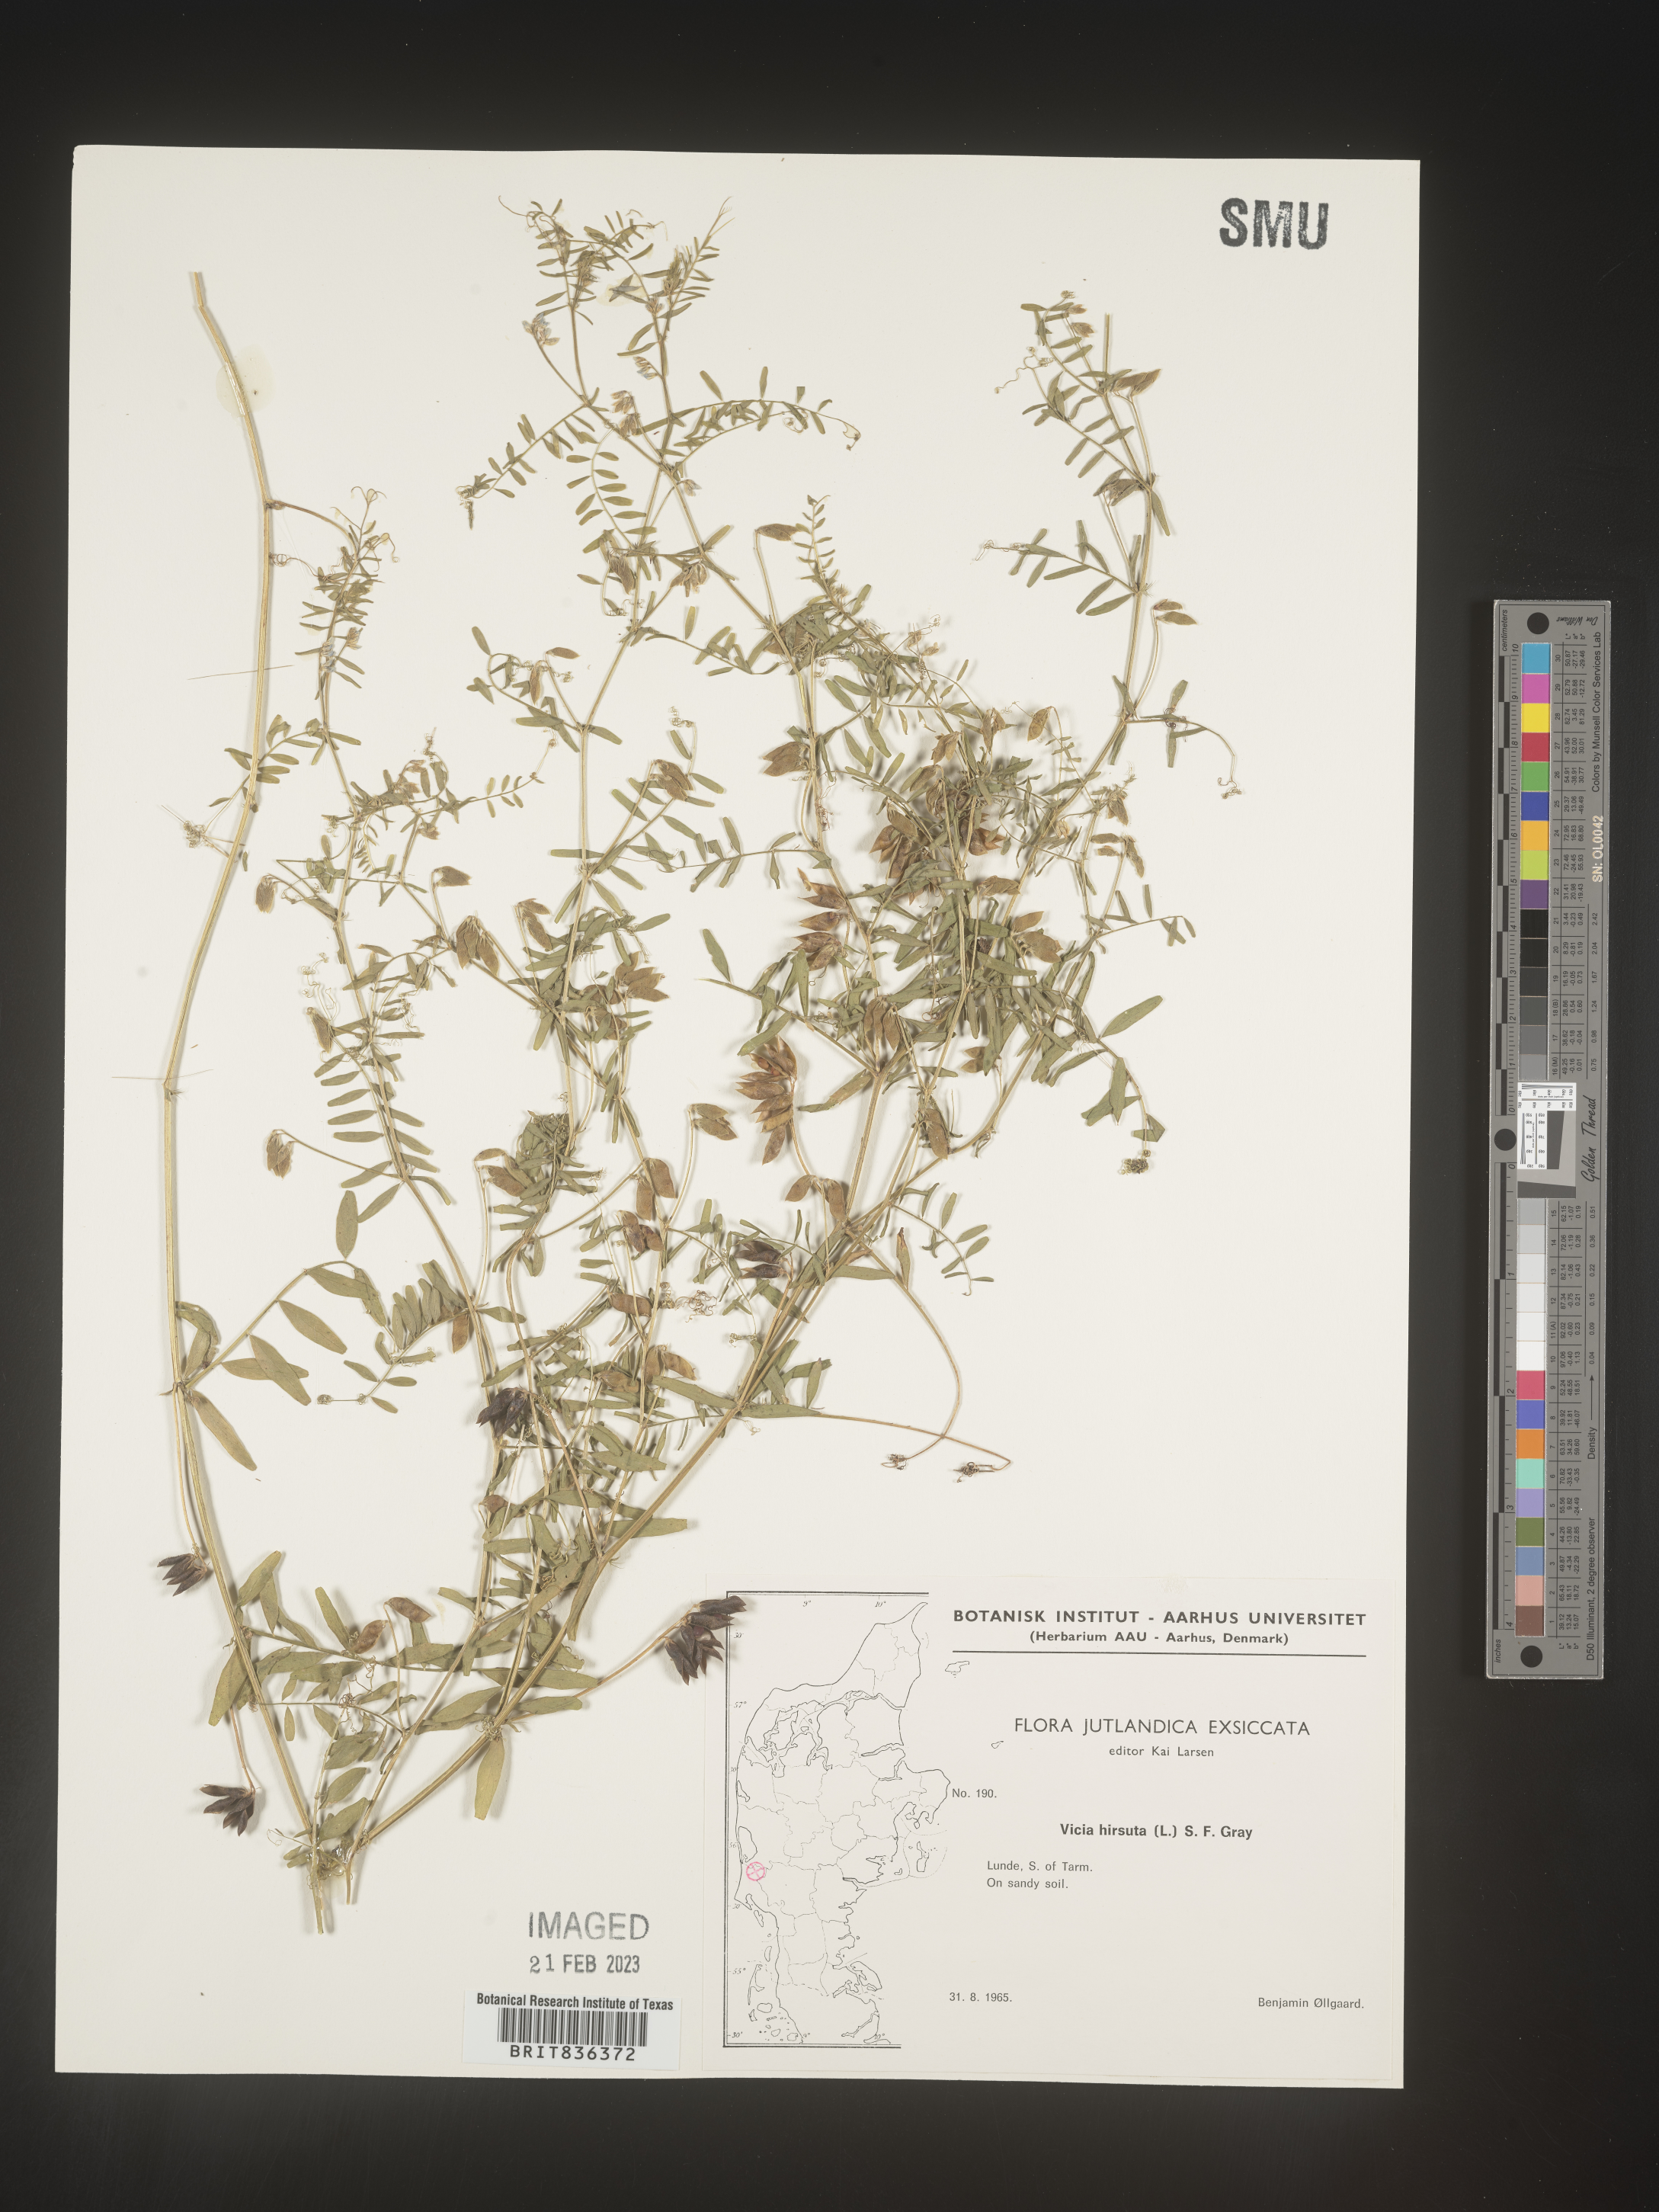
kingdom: Plantae
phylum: Tracheophyta
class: Magnoliopsida
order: Fabales
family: Fabaceae
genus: Vicia
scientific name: Vicia
